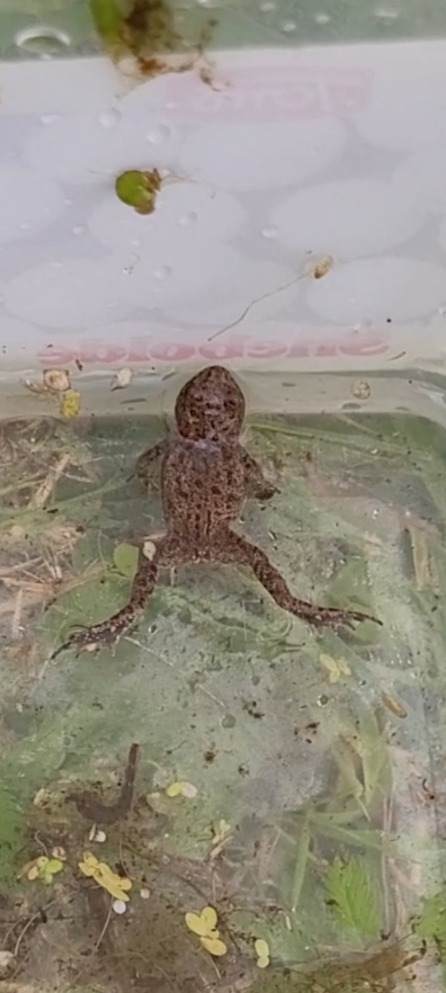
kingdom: Animalia
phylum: Chordata
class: Amphibia
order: Anura
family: Bufonidae
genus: Bufo
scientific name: Bufo bufo
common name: Skrubtudse
